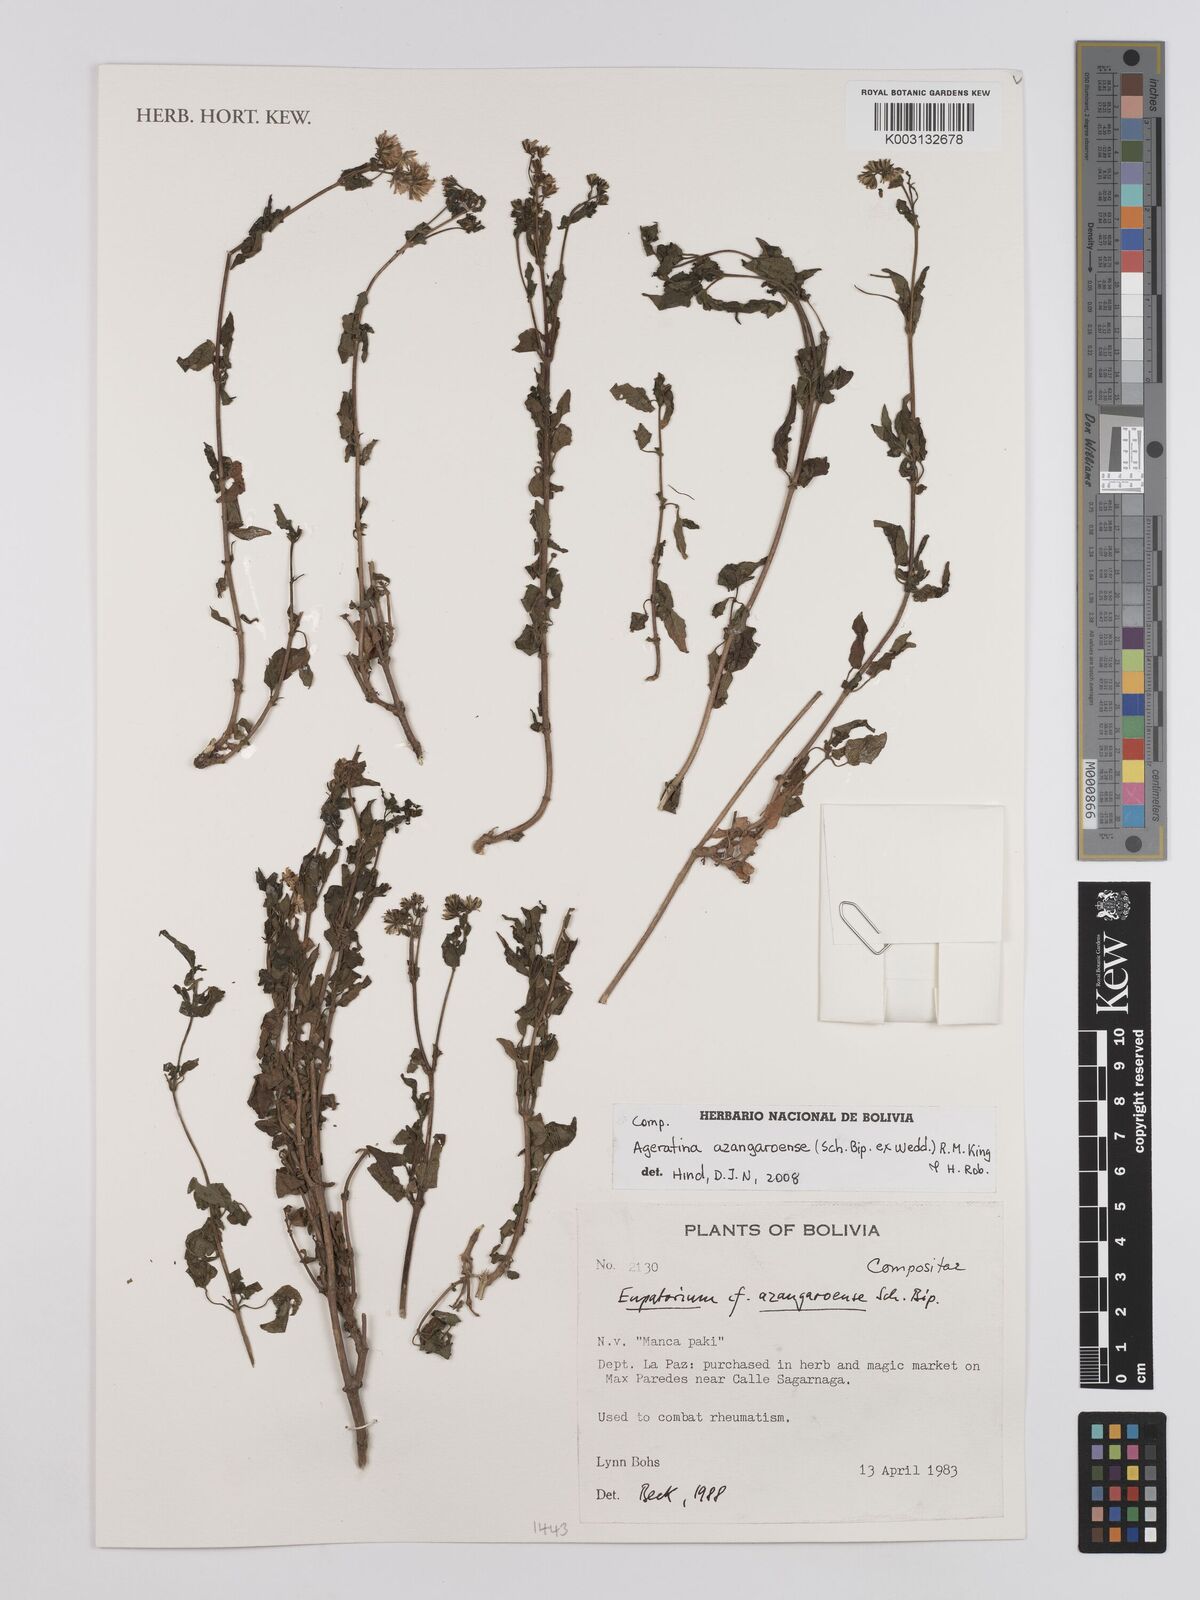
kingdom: Plantae
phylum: Tracheophyta
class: Magnoliopsida
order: Asterales
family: Asteraceae
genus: Ageratina
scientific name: Ageratina glechonophylla
